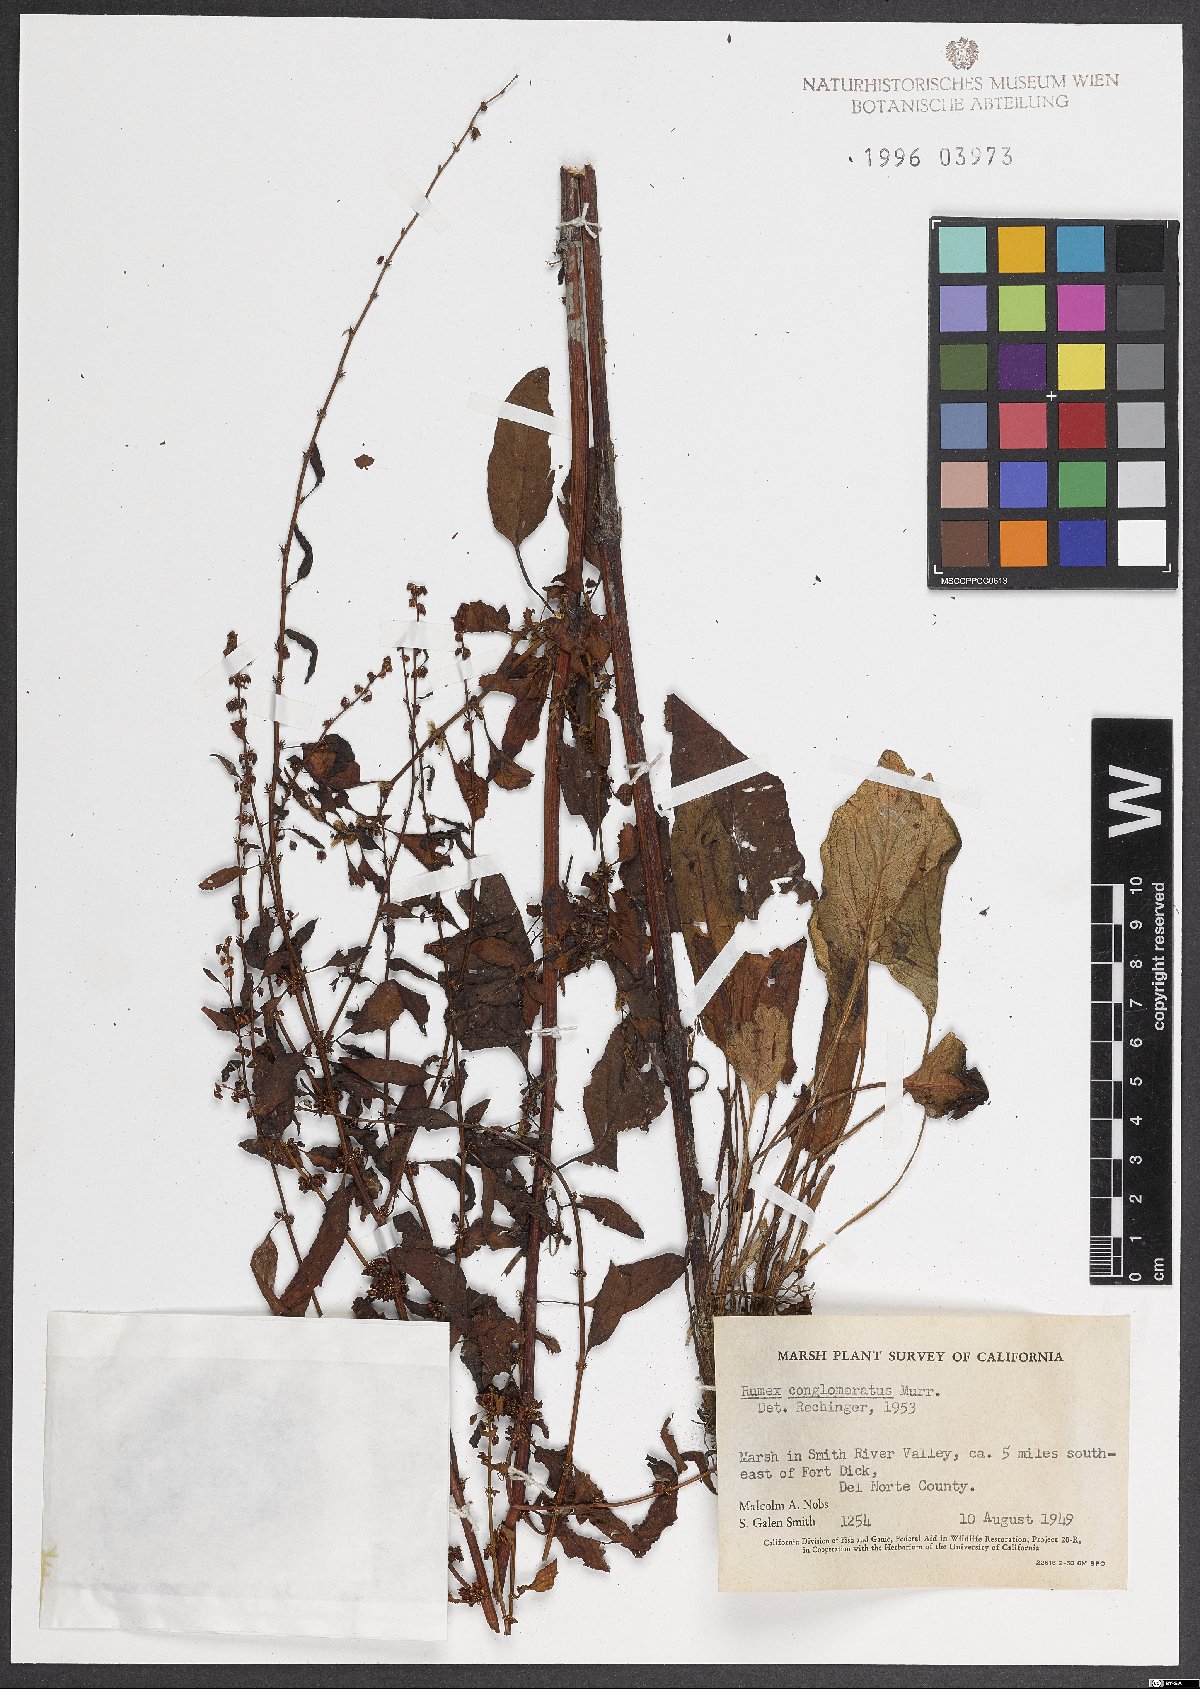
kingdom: Plantae
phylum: Tracheophyta
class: Magnoliopsida
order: Caryophyllales
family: Polygonaceae
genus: Rumex
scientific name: Rumex conglomeratus
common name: Clustered dock
